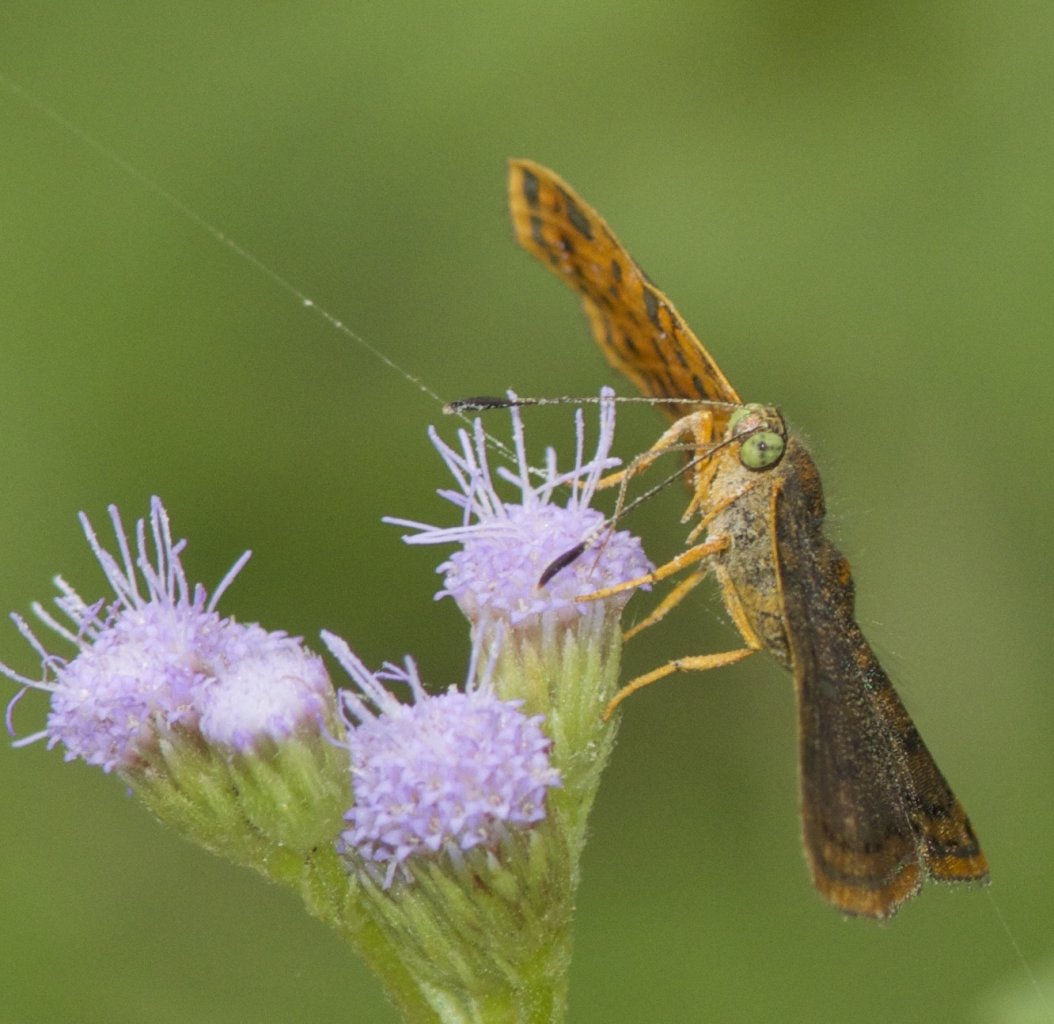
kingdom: Animalia
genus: Caria
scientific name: Caria ino
